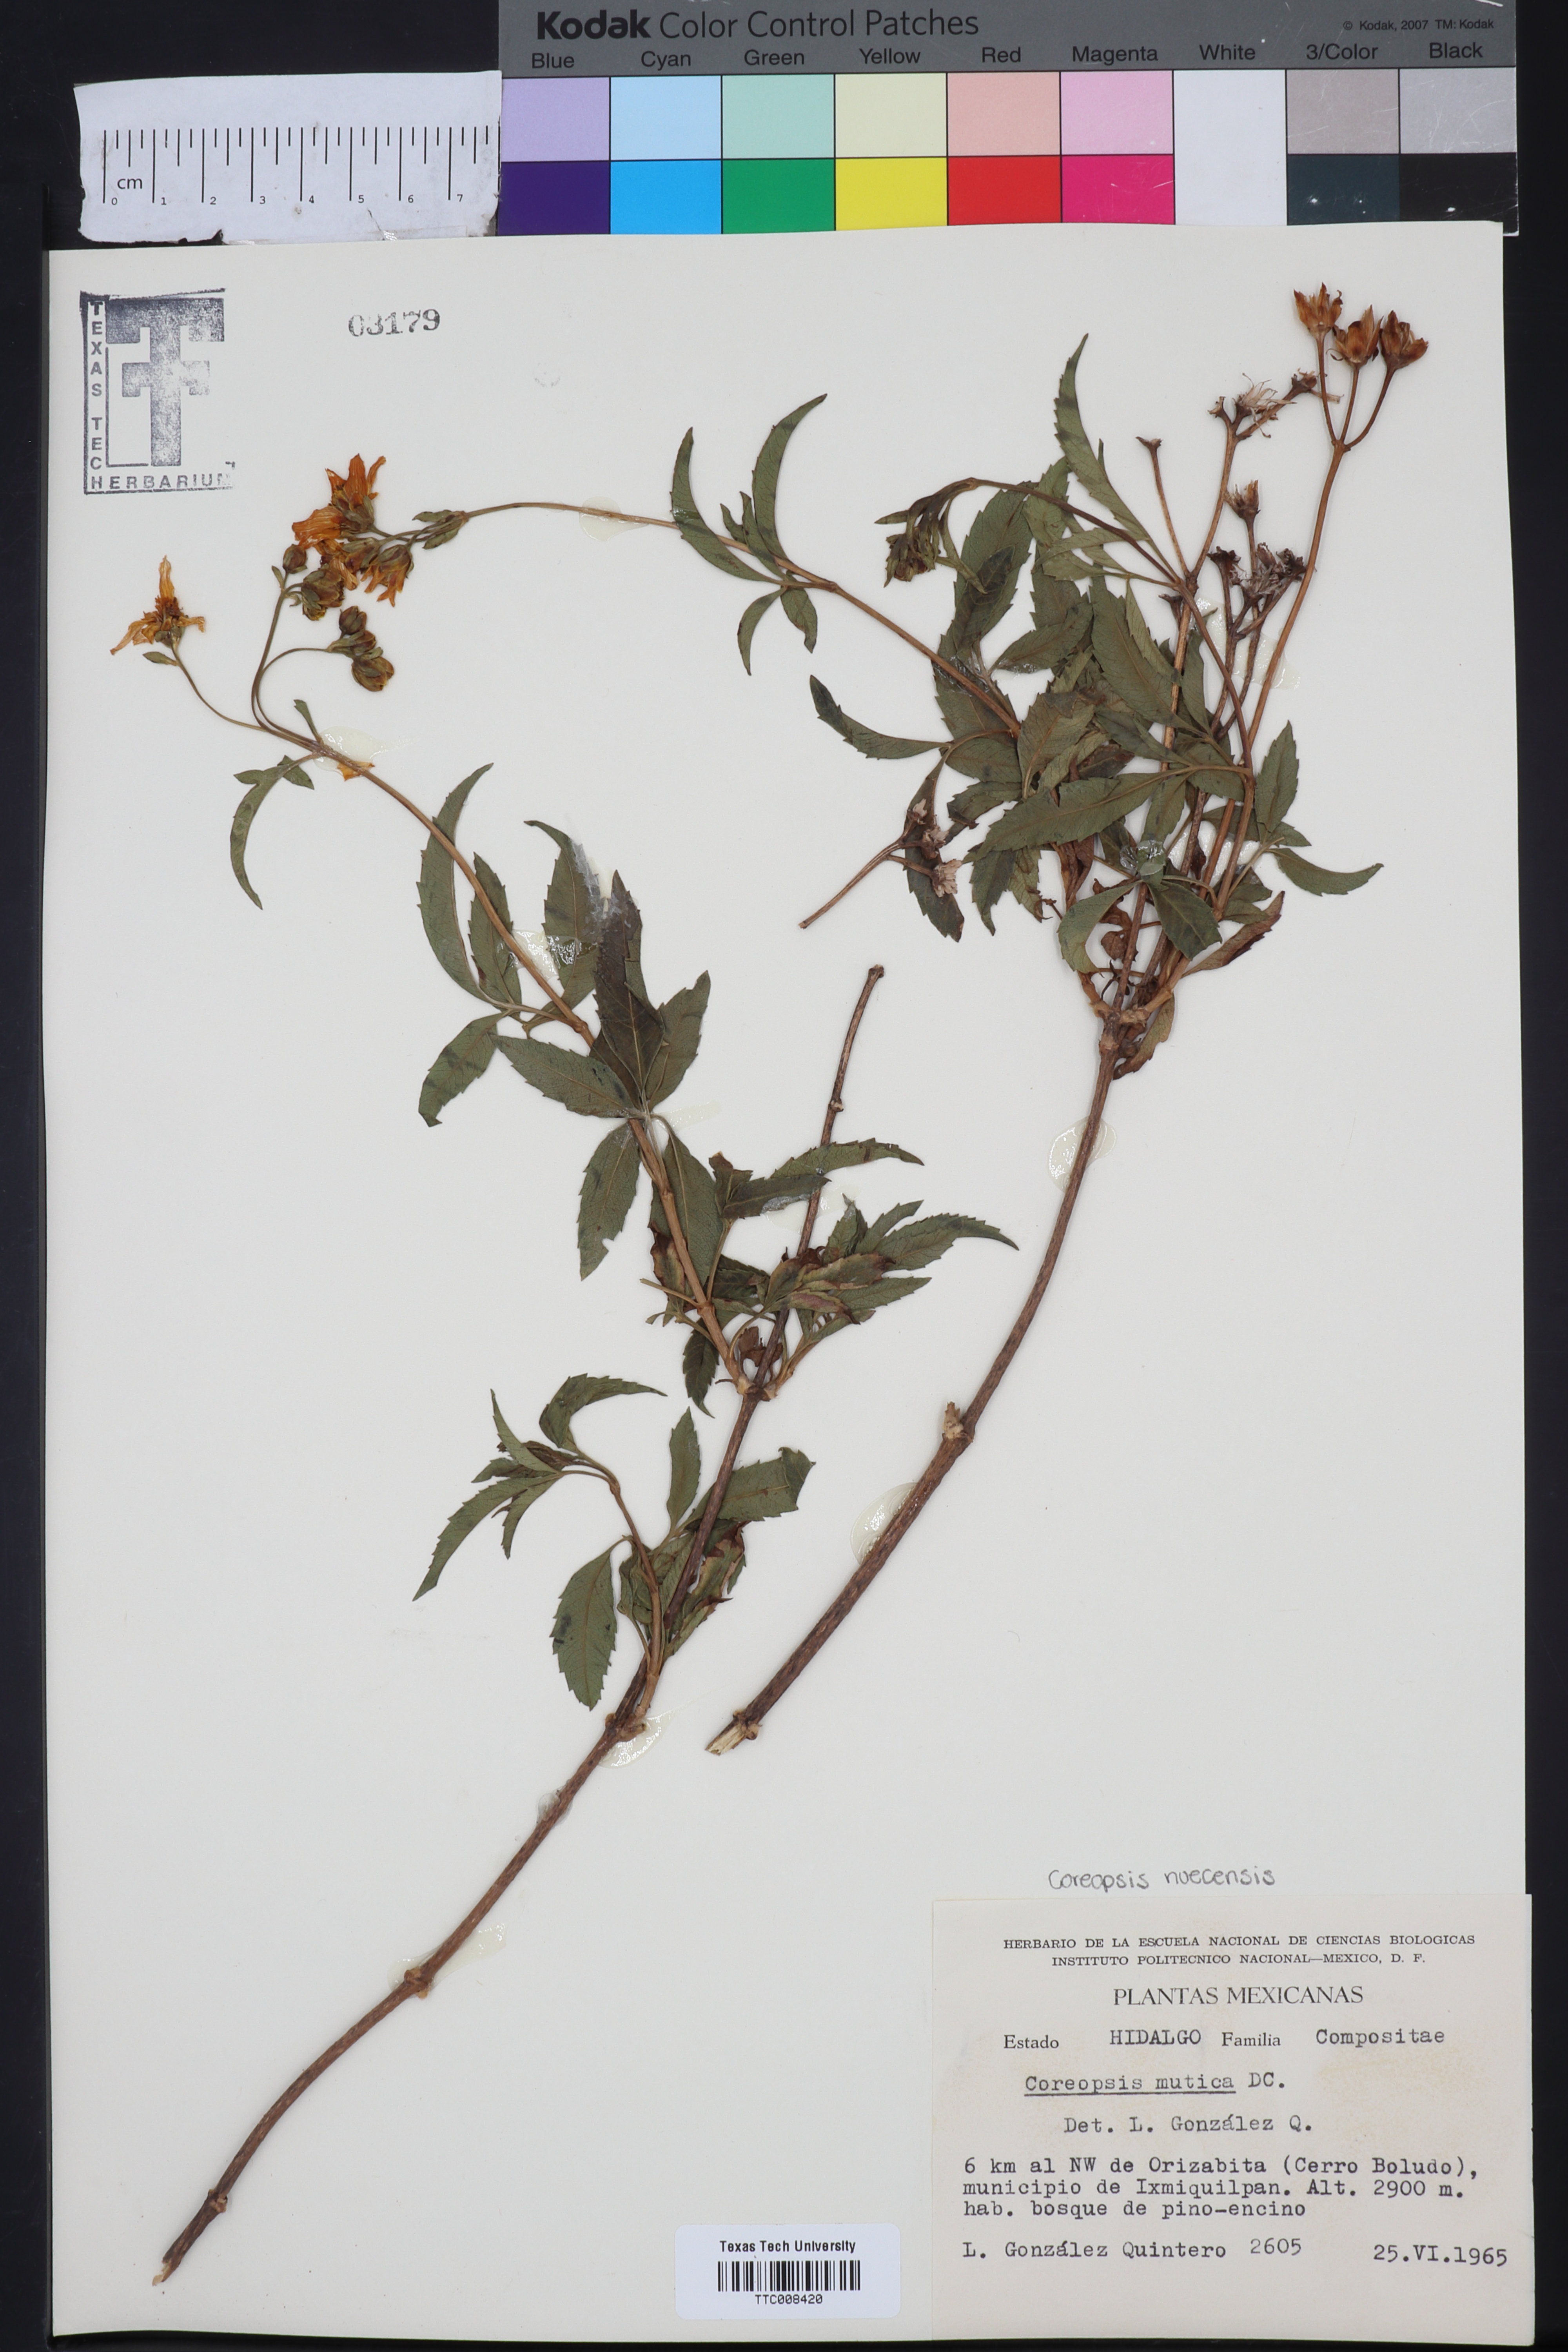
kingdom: Plantae
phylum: Tracheophyta
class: Magnoliopsida
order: Asterales
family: Asteraceae
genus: Electranthera
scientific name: Electranthera mutica
